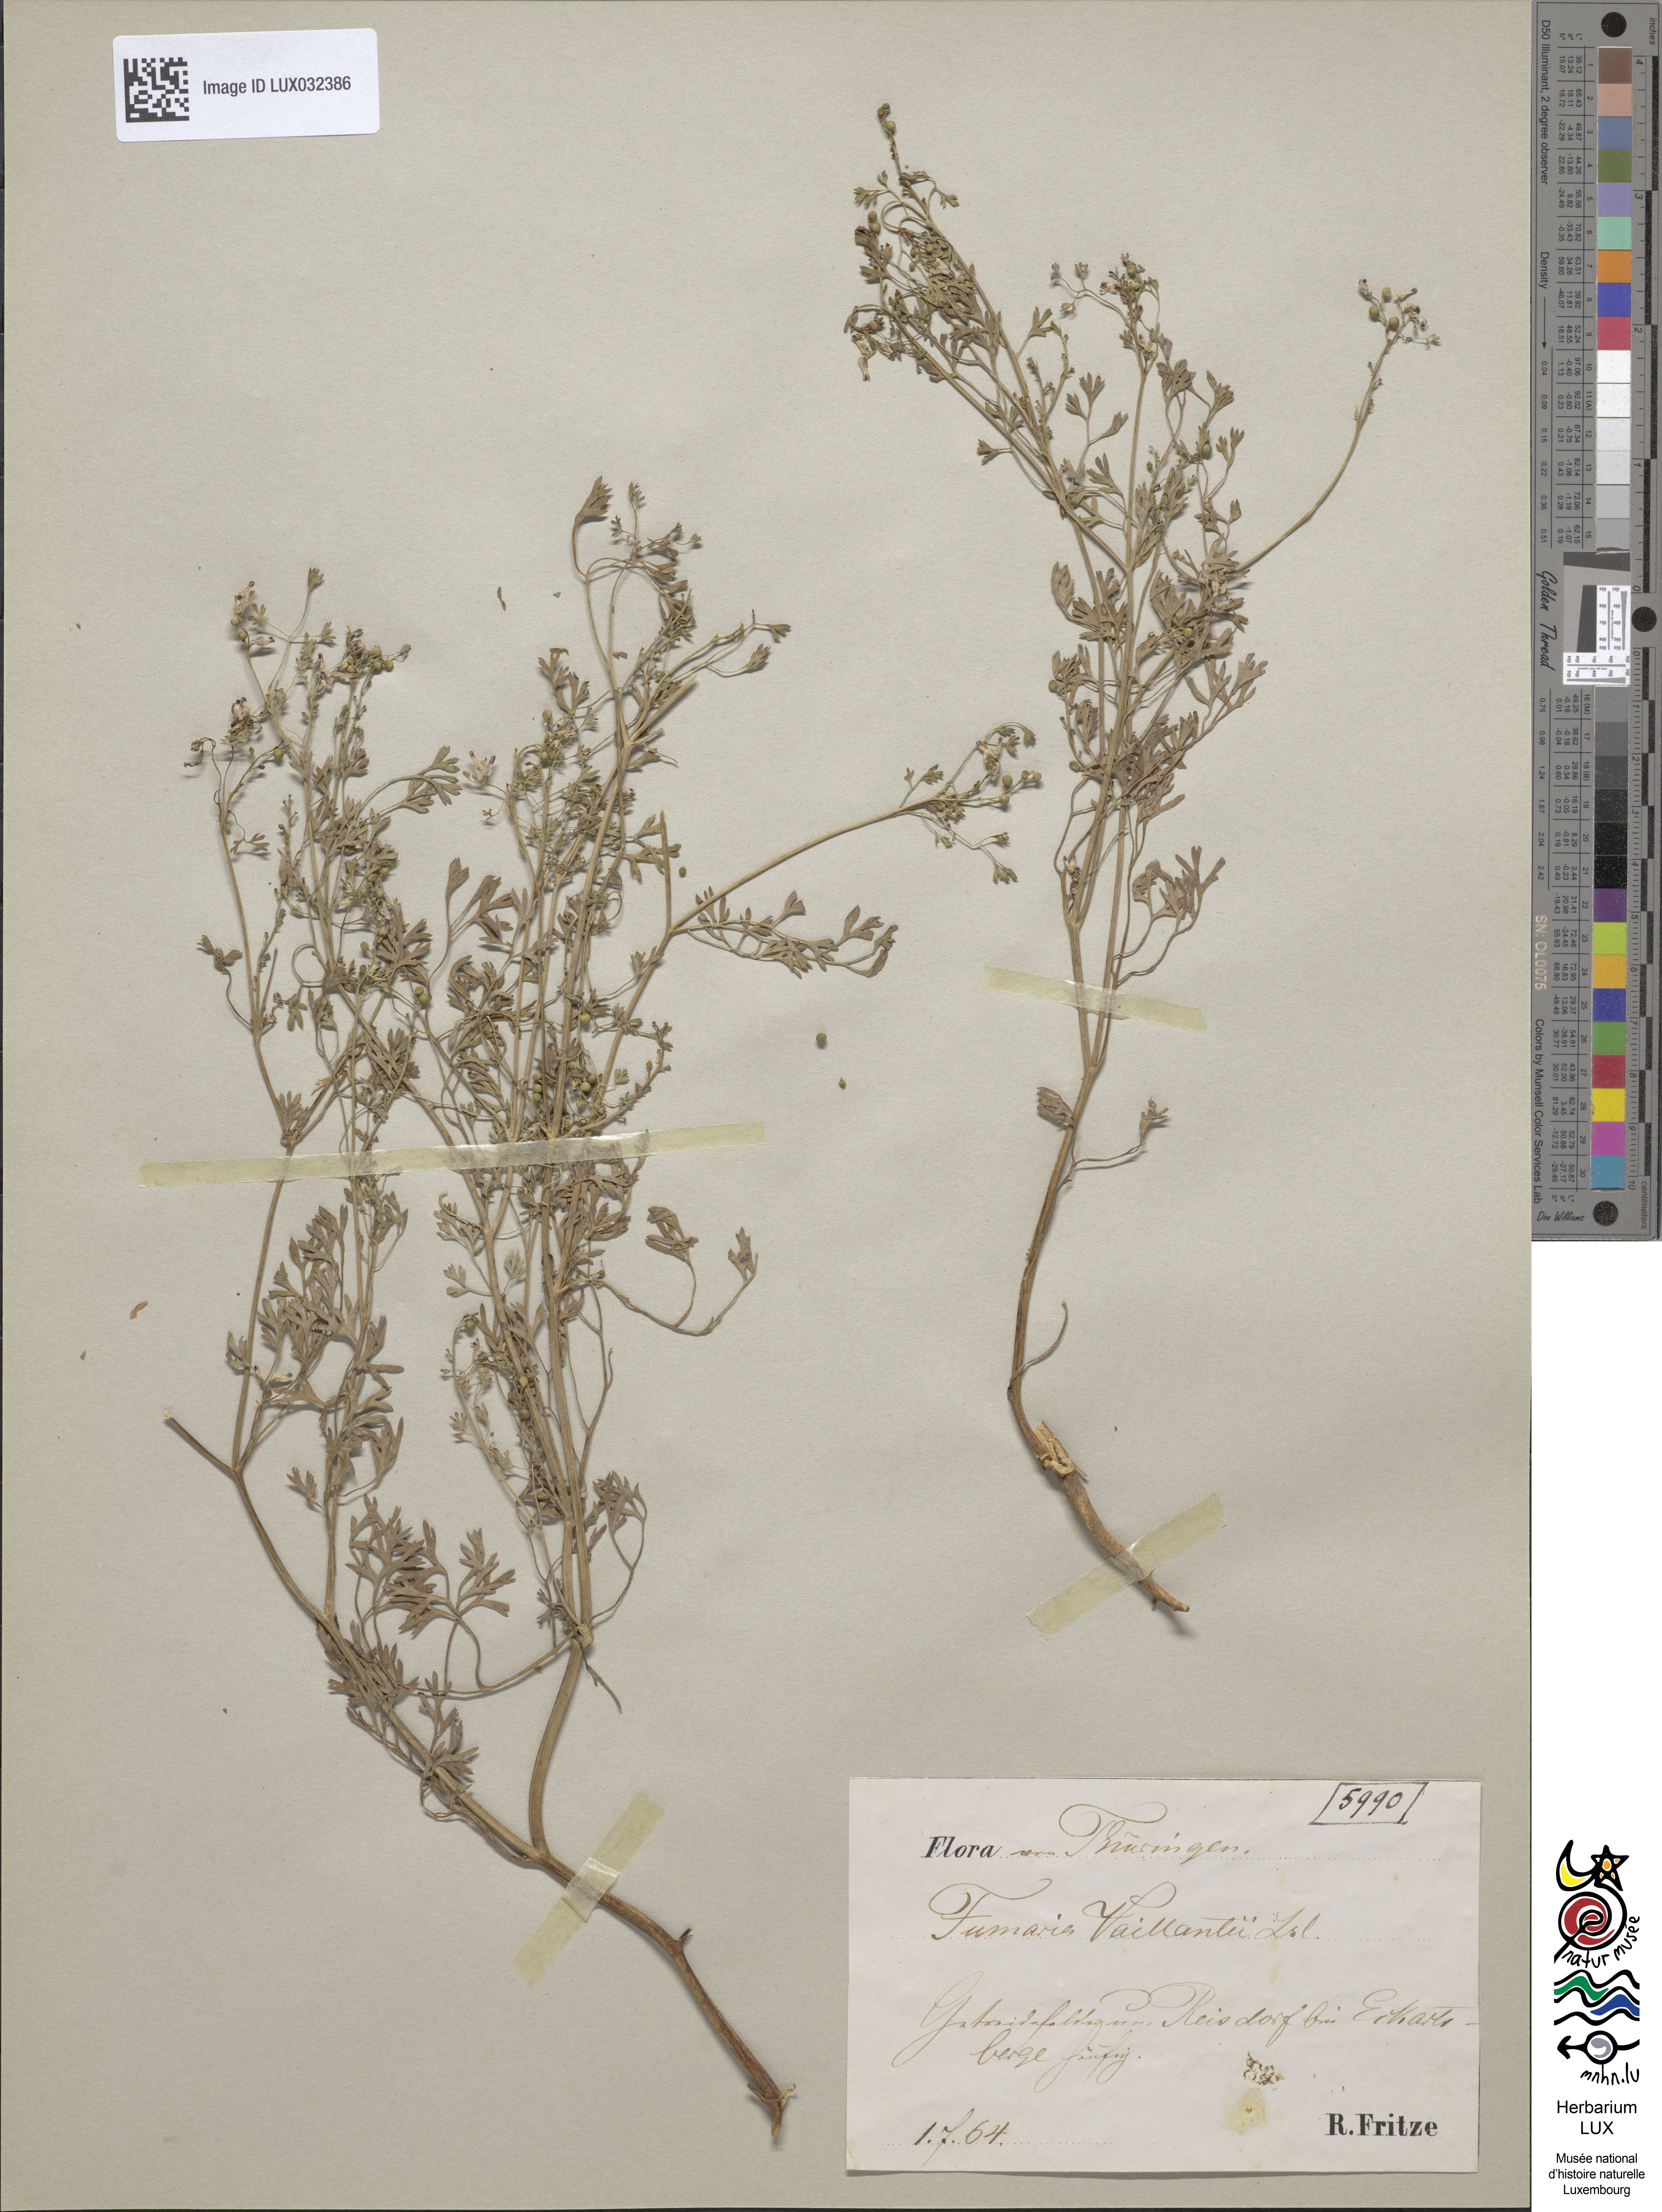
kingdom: Plantae
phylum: Tracheophyta
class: Magnoliopsida
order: Ranunculales
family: Papaveraceae
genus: Fumaria
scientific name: Fumaria vaillantii
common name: Few-flowered fumitory
